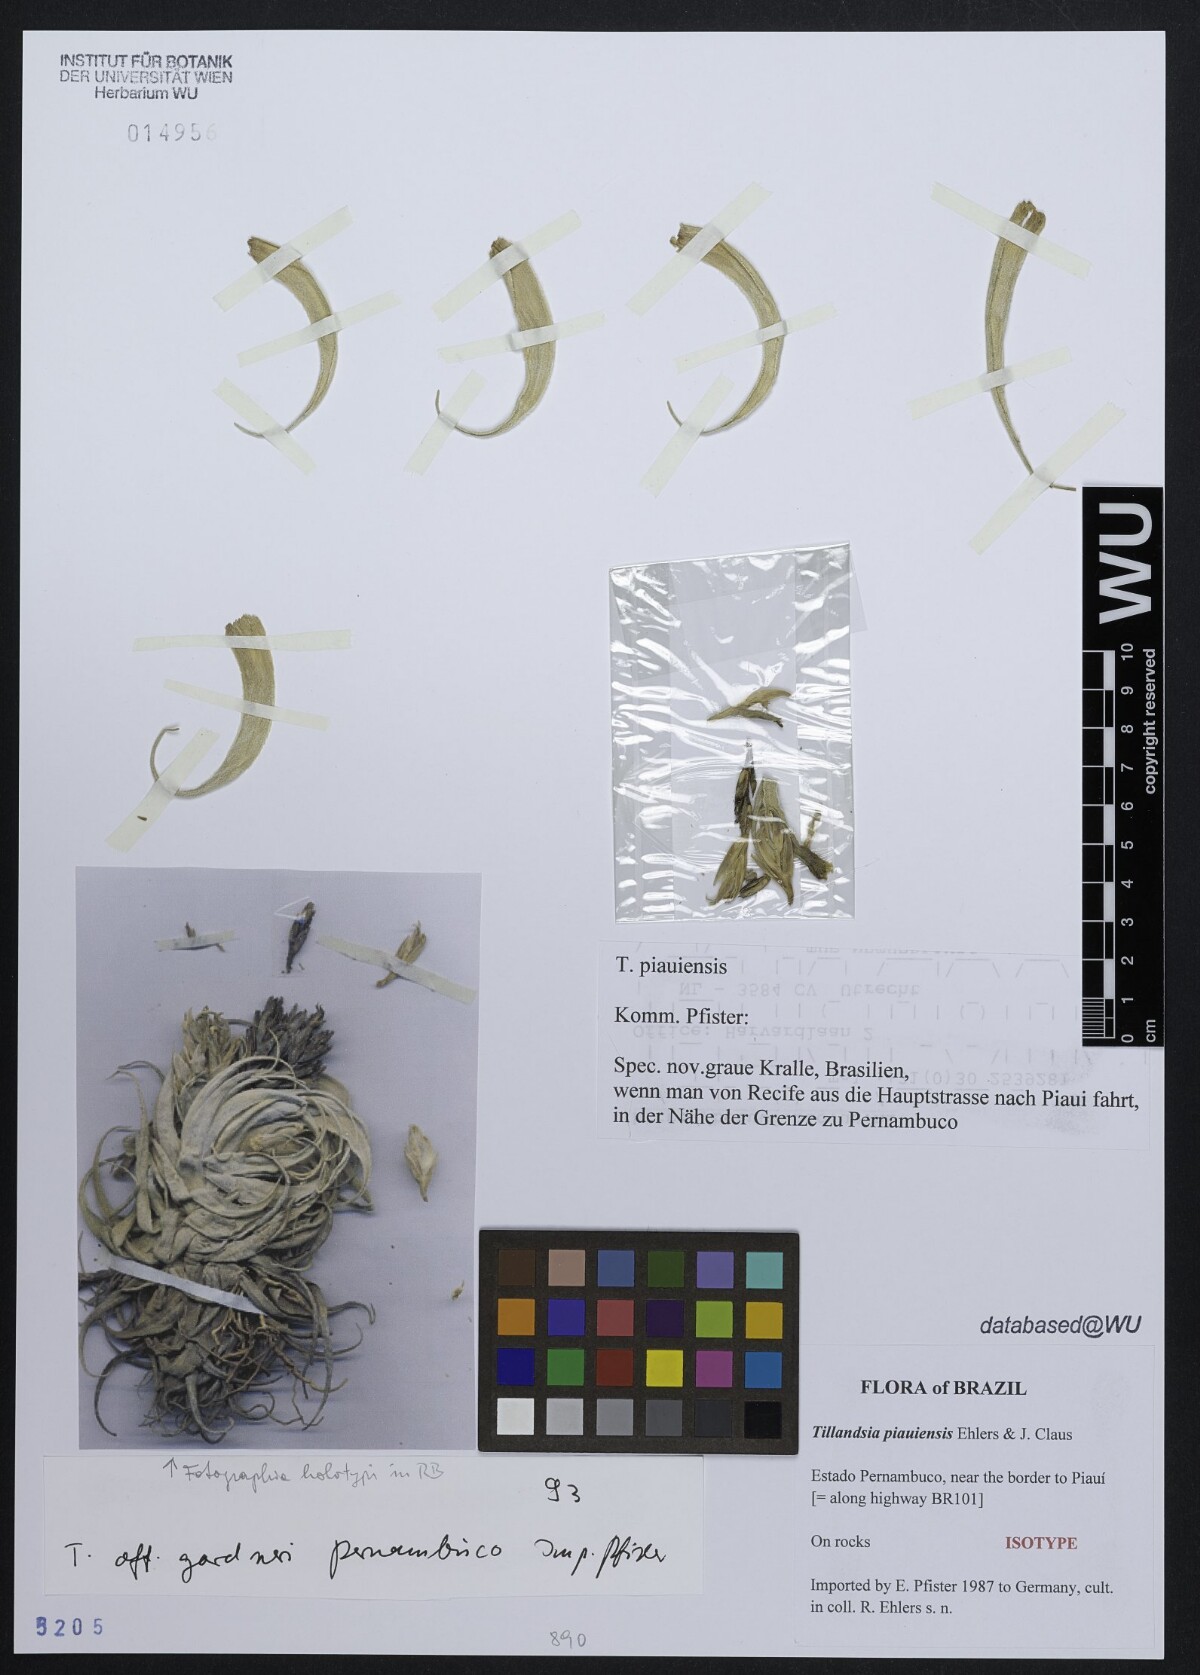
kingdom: Plantae
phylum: Tracheophyta
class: Liliopsida
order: Poales
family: Bromeliaceae
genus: Tillandsia
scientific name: Tillandsia piauiensis
